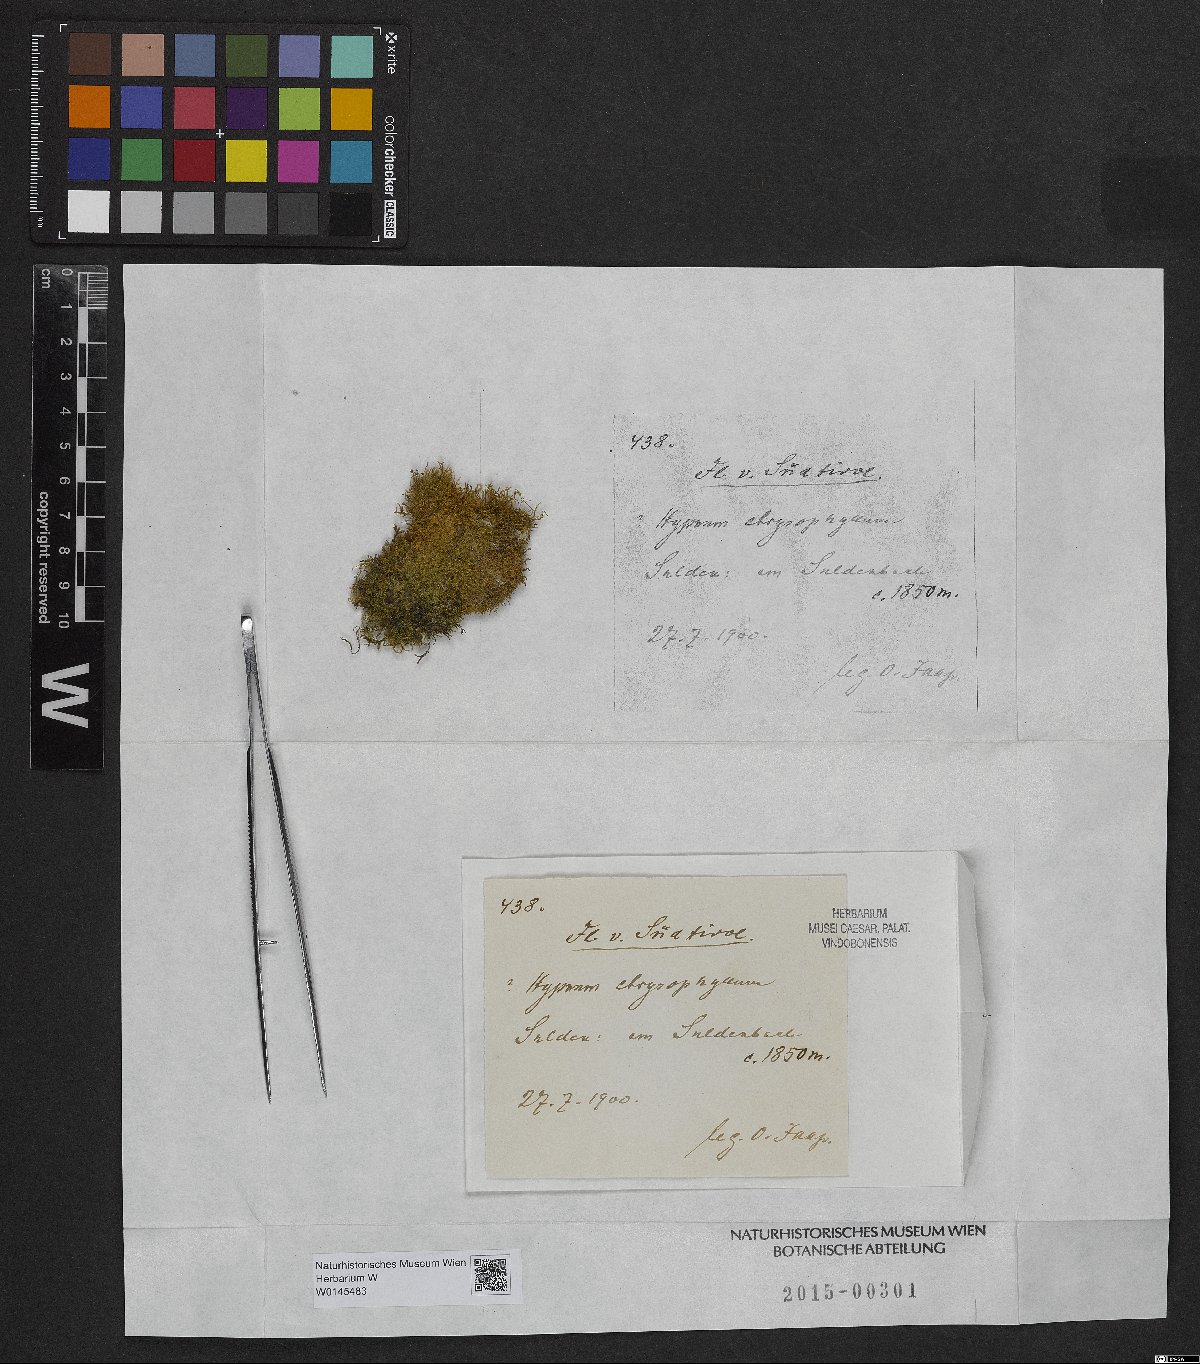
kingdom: Plantae
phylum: Bryophyta
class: Bryopsida
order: Hypnales
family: Amblystegiaceae
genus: Campylium
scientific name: Campylium chrysophyllum
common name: Goldenleaf campylium moss
